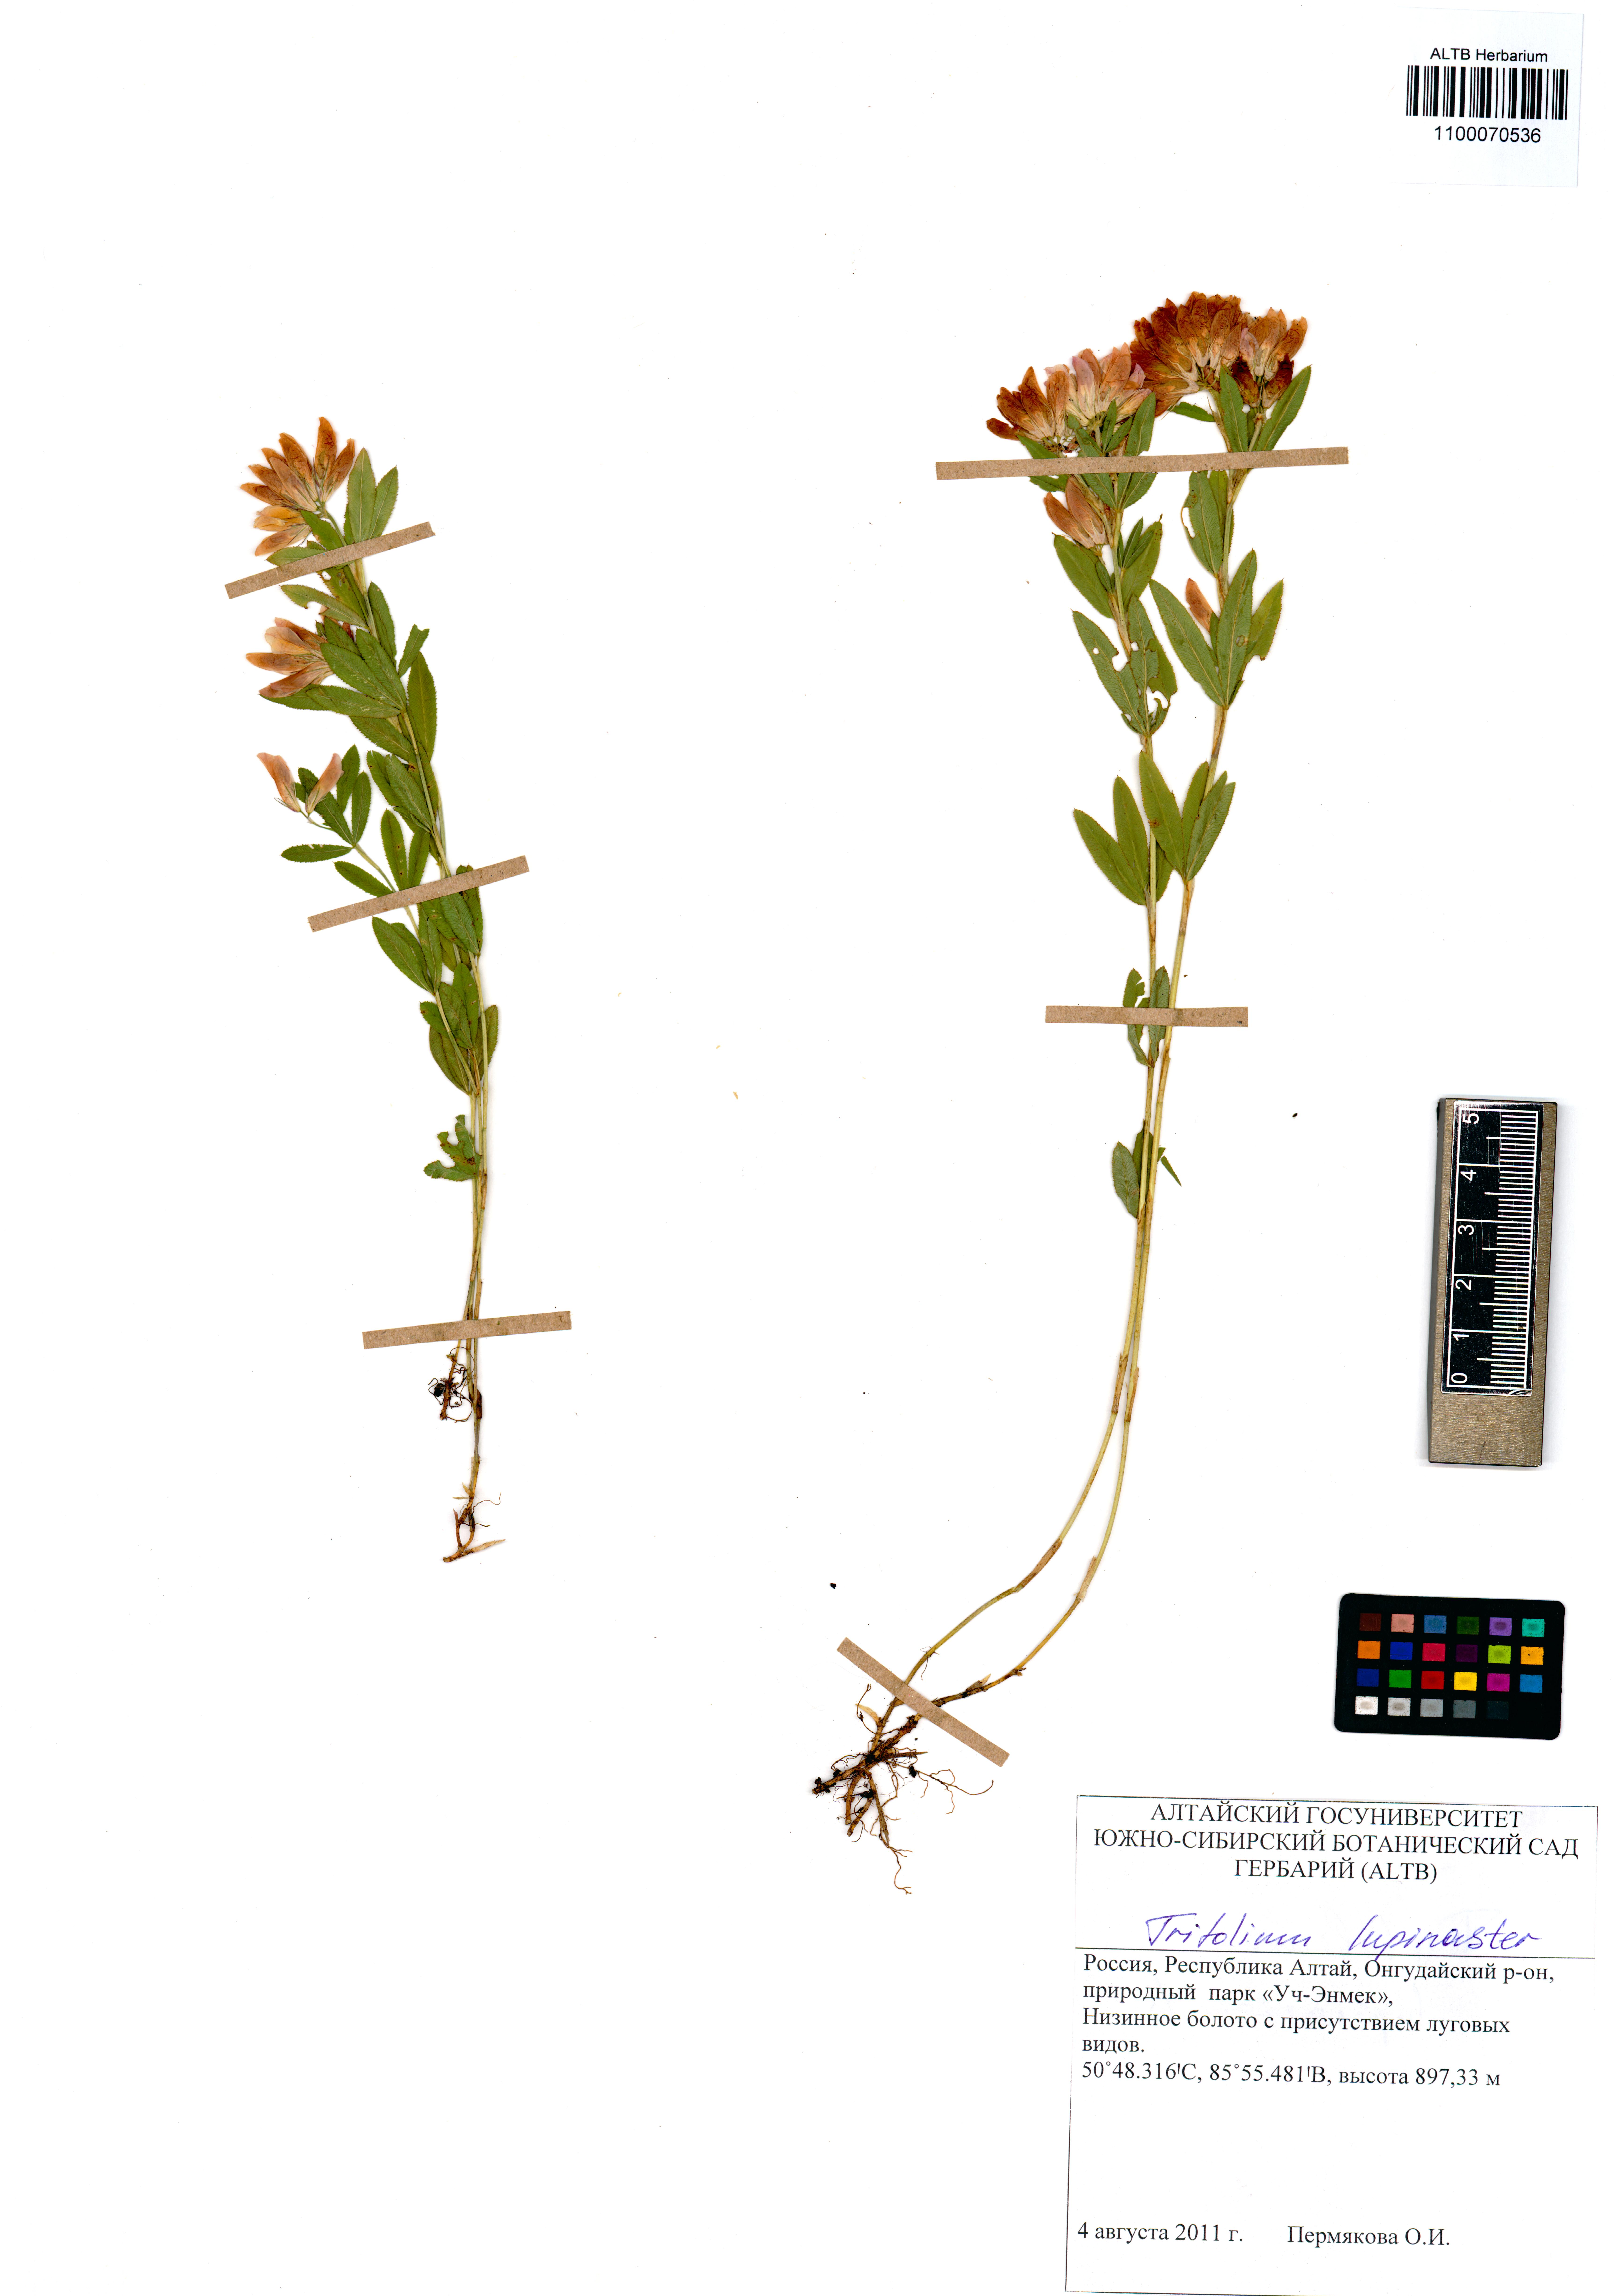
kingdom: Plantae
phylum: Tracheophyta
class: Magnoliopsida
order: Fabales
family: Fabaceae
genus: Trifolium
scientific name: Trifolium lupinaster
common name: Lupine clover
